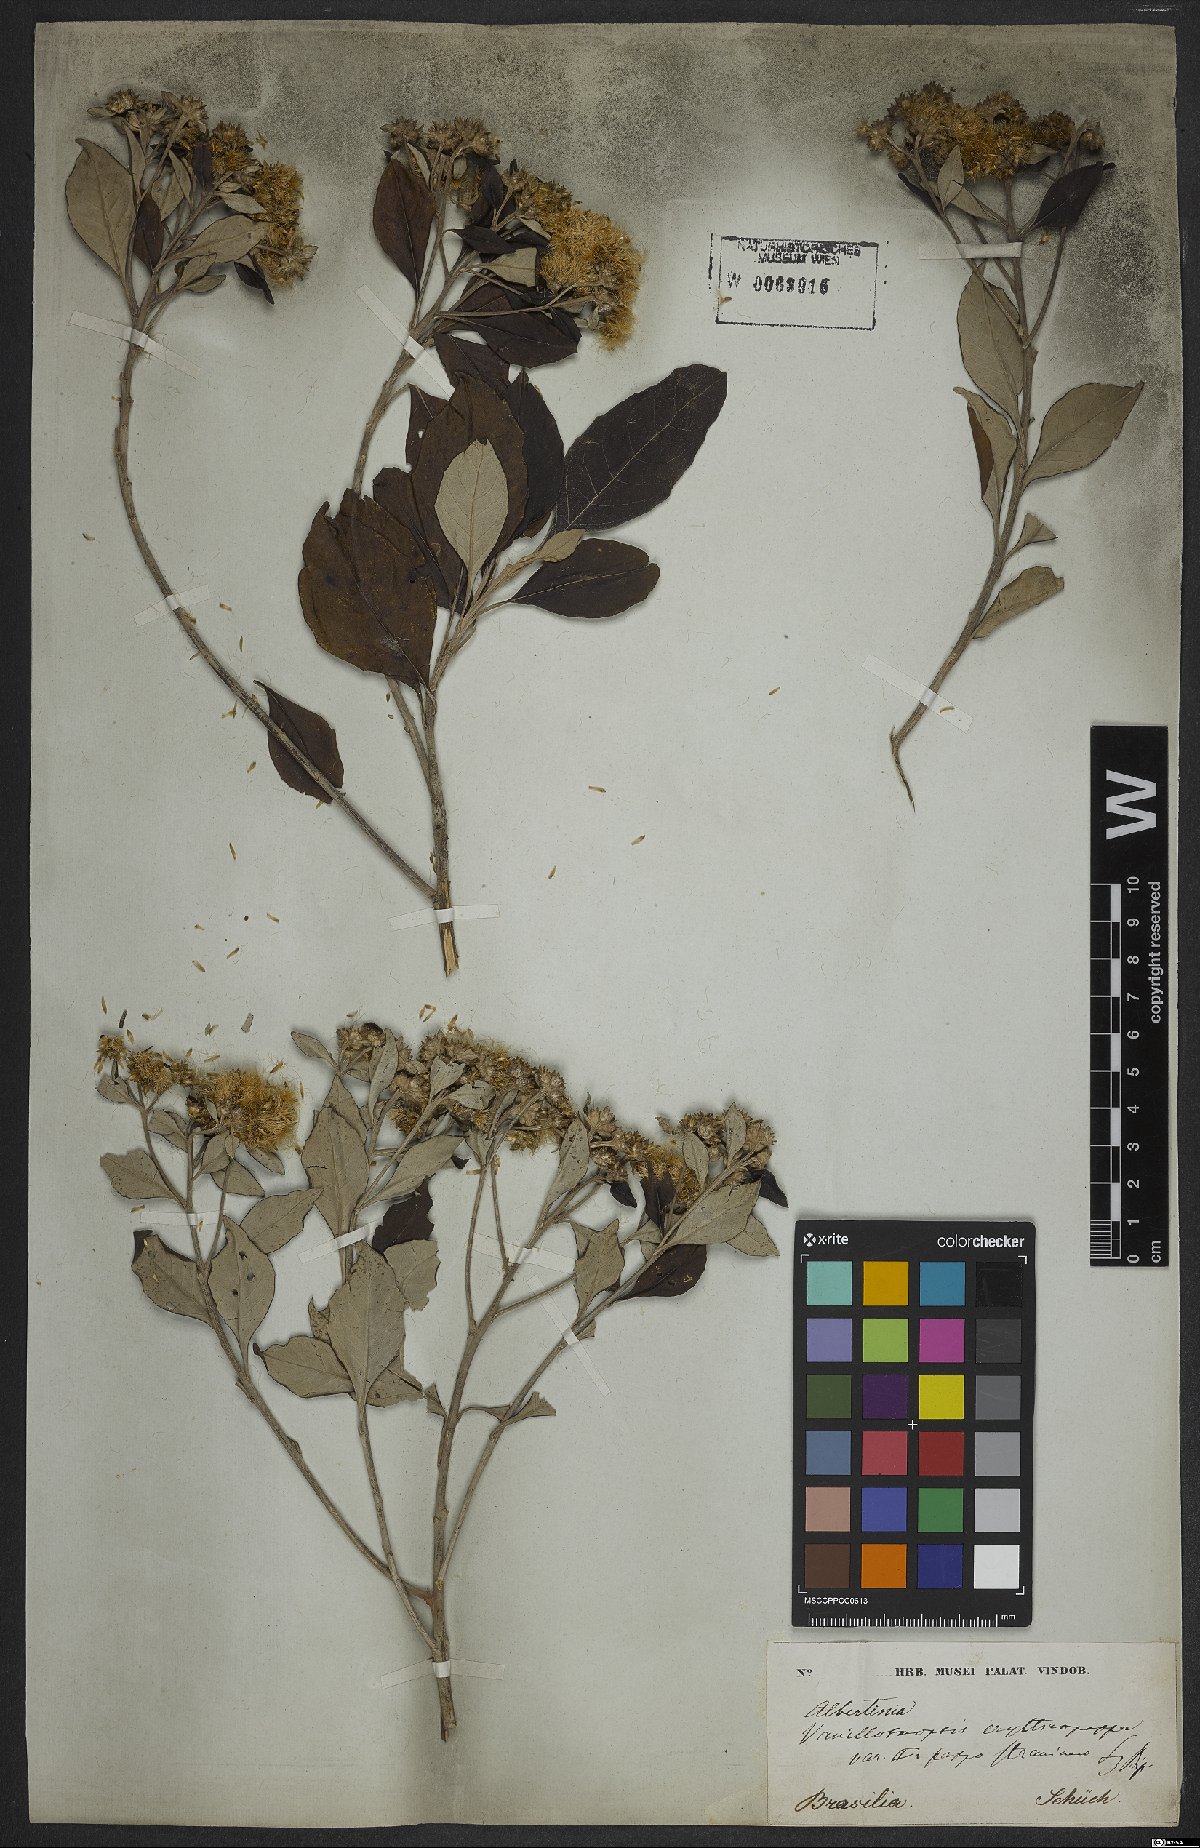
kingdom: Plantae
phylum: Tracheophyta
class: Magnoliopsida
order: Asterales
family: Asteraceae
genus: Eremanthus
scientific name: Eremanthus erythropappus
